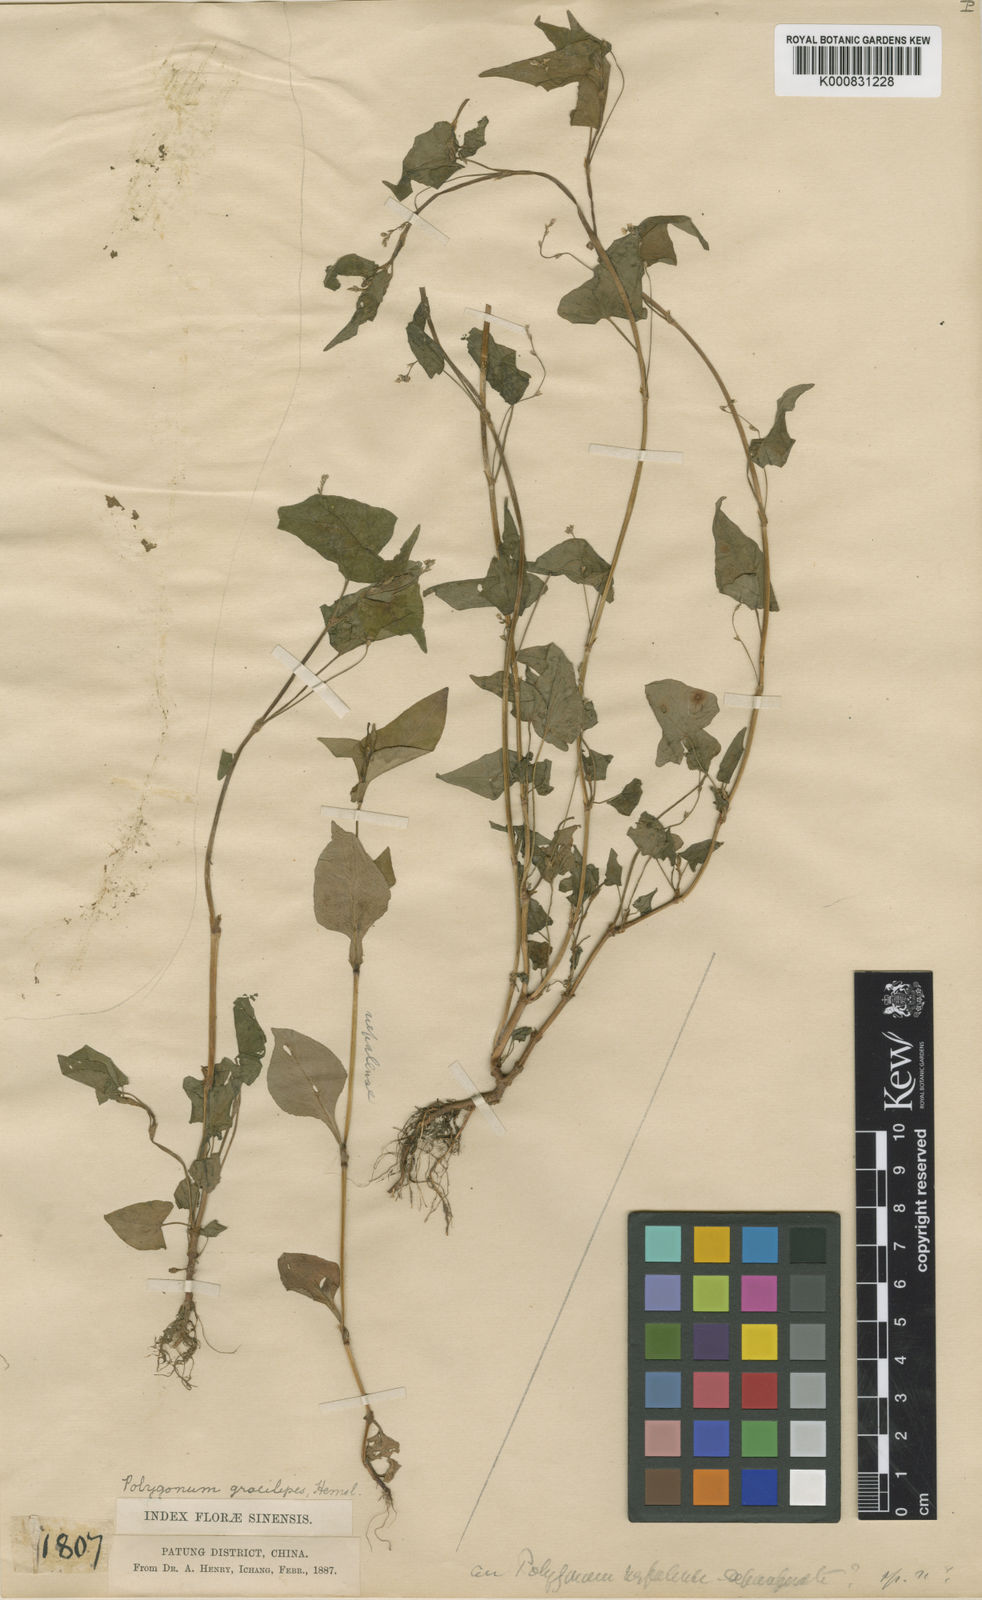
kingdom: Plantae
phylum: Tracheophyta
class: Magnoliopsida
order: Caryophyllales
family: Polygonaceae
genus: Fagopyrum
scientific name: Fagopyrum gracilipes
